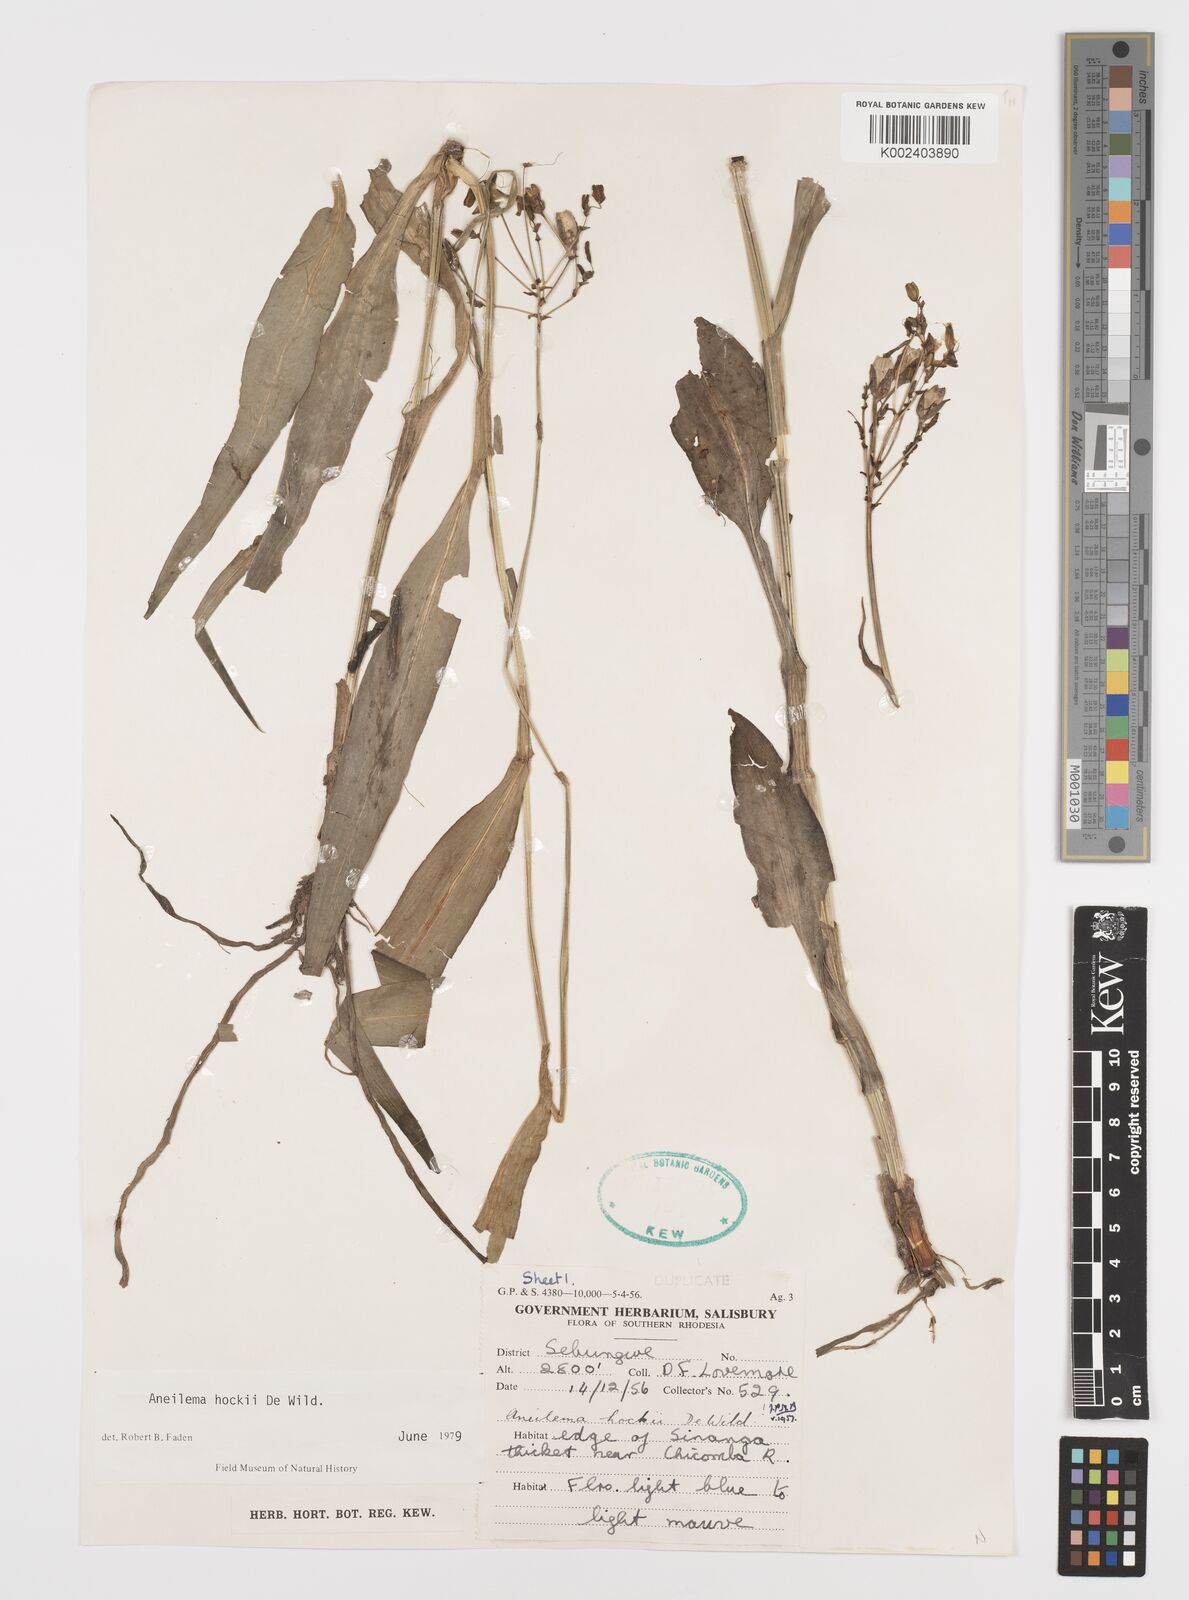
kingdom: Plantae
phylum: Tracheophyta
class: Liliopsida
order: Commelinales
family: Commelinaceae
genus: Aneilema
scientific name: Aneilema hockii
